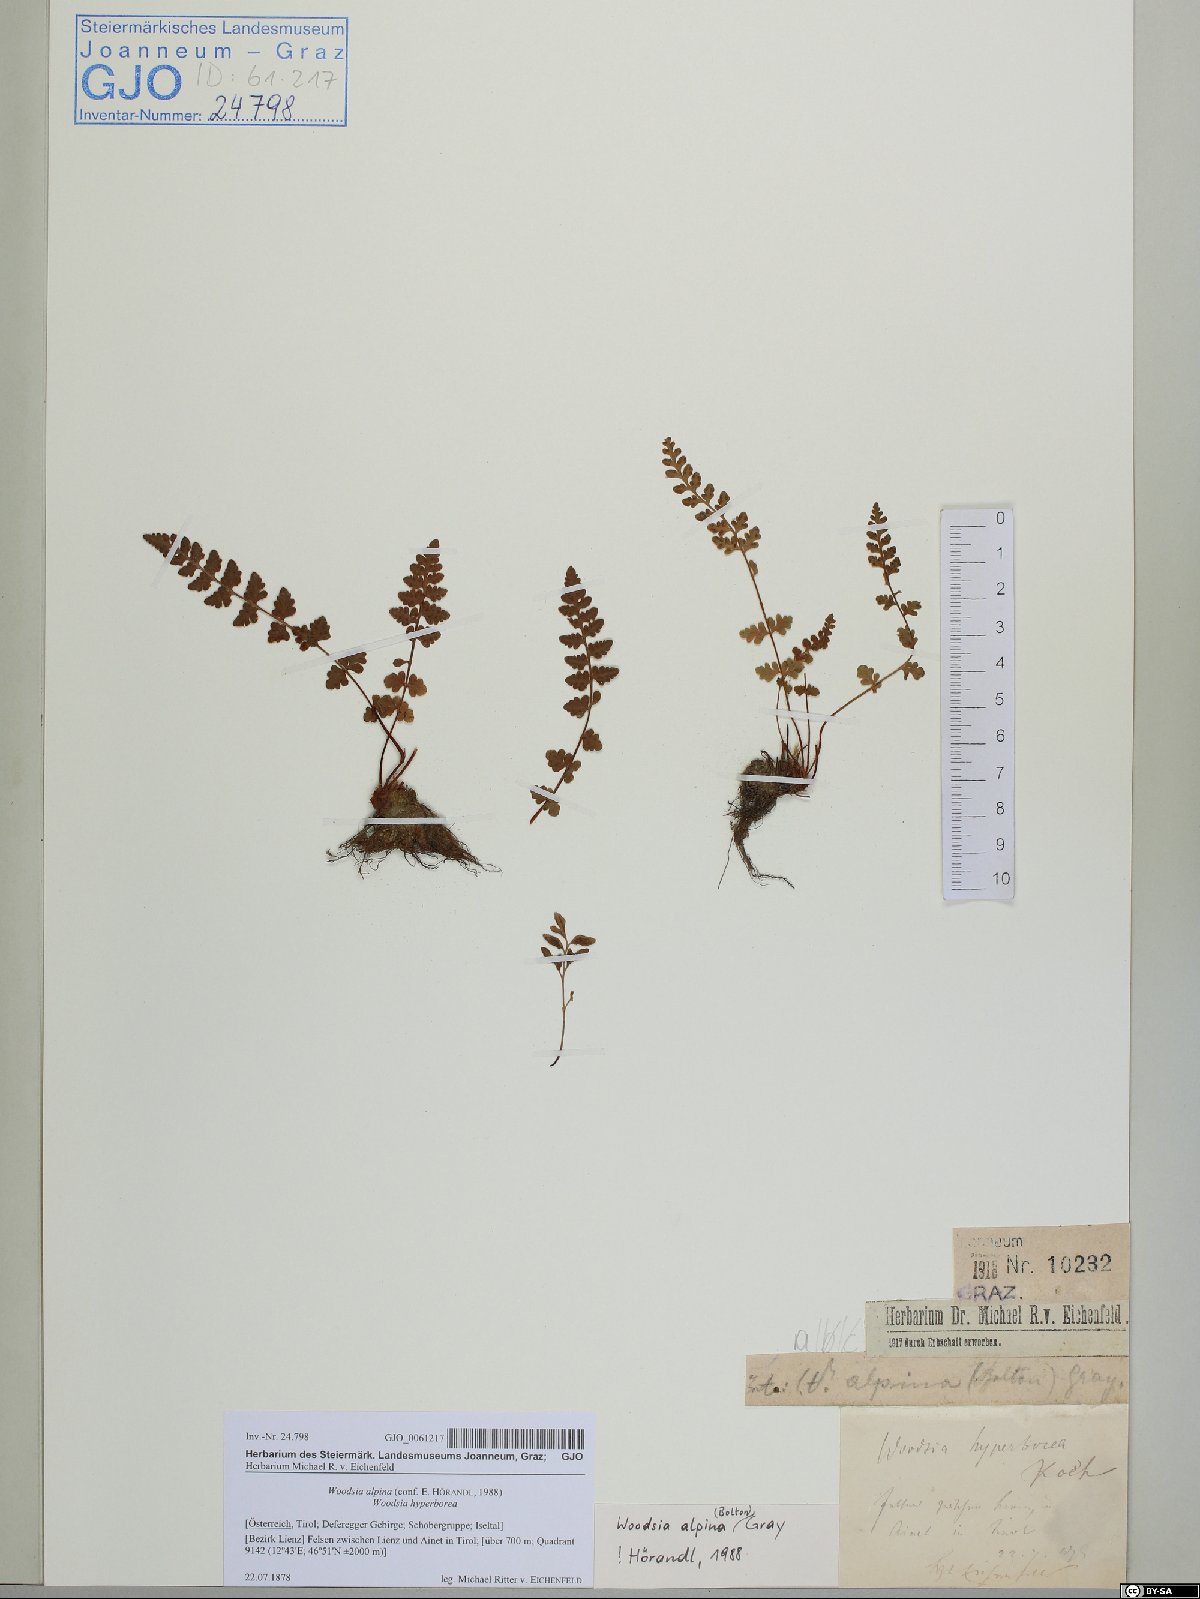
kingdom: Plantae
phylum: Tracheophyta
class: Polypodiopsida
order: Polypodiales
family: Woodsiaceae
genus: Woodsia
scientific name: Woodsia alpina
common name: Alpine woodsia
